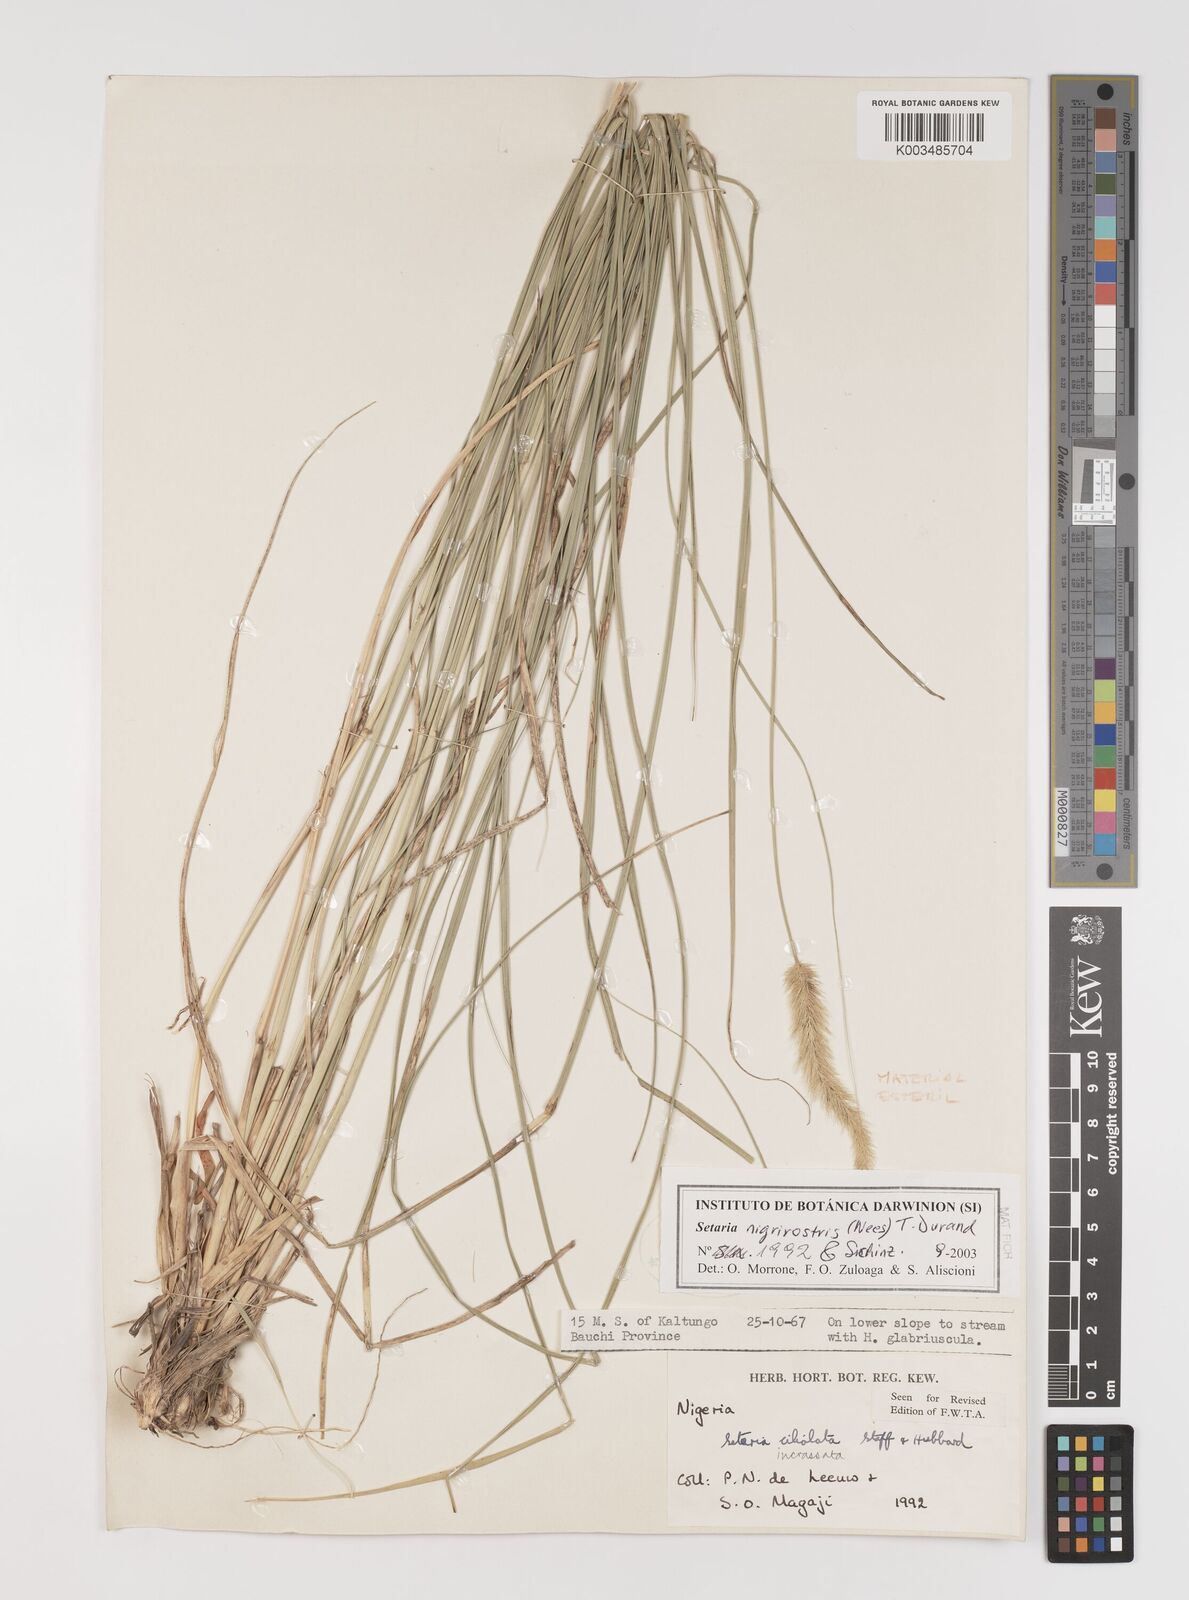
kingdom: Plantae
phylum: Tracheophyta
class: Liliopsida
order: Poales
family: Poaceae
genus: Setaria
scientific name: Setaria nigrirostris
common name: Black bristlegrass
